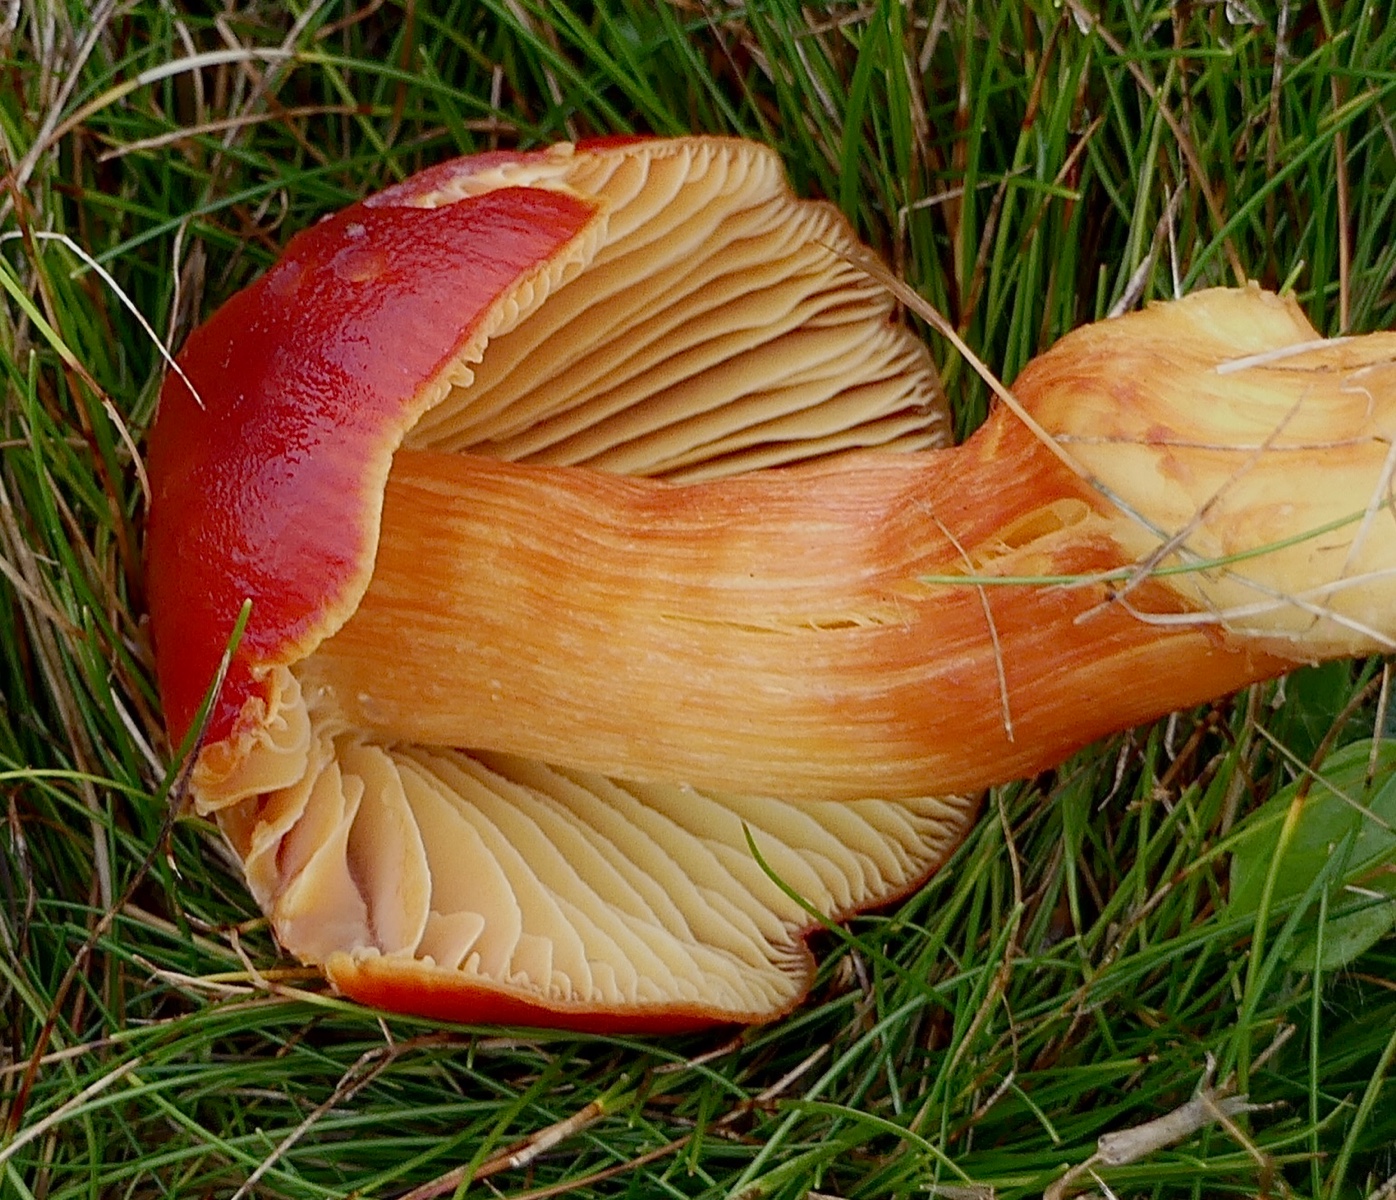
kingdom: Fungi
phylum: Basidiomycota
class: Agaricomycetes
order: Agaricales
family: Hygrophoraceae
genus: Hygrocybe
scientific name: Hygrocybe punicea
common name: skarlagen-vokshat
